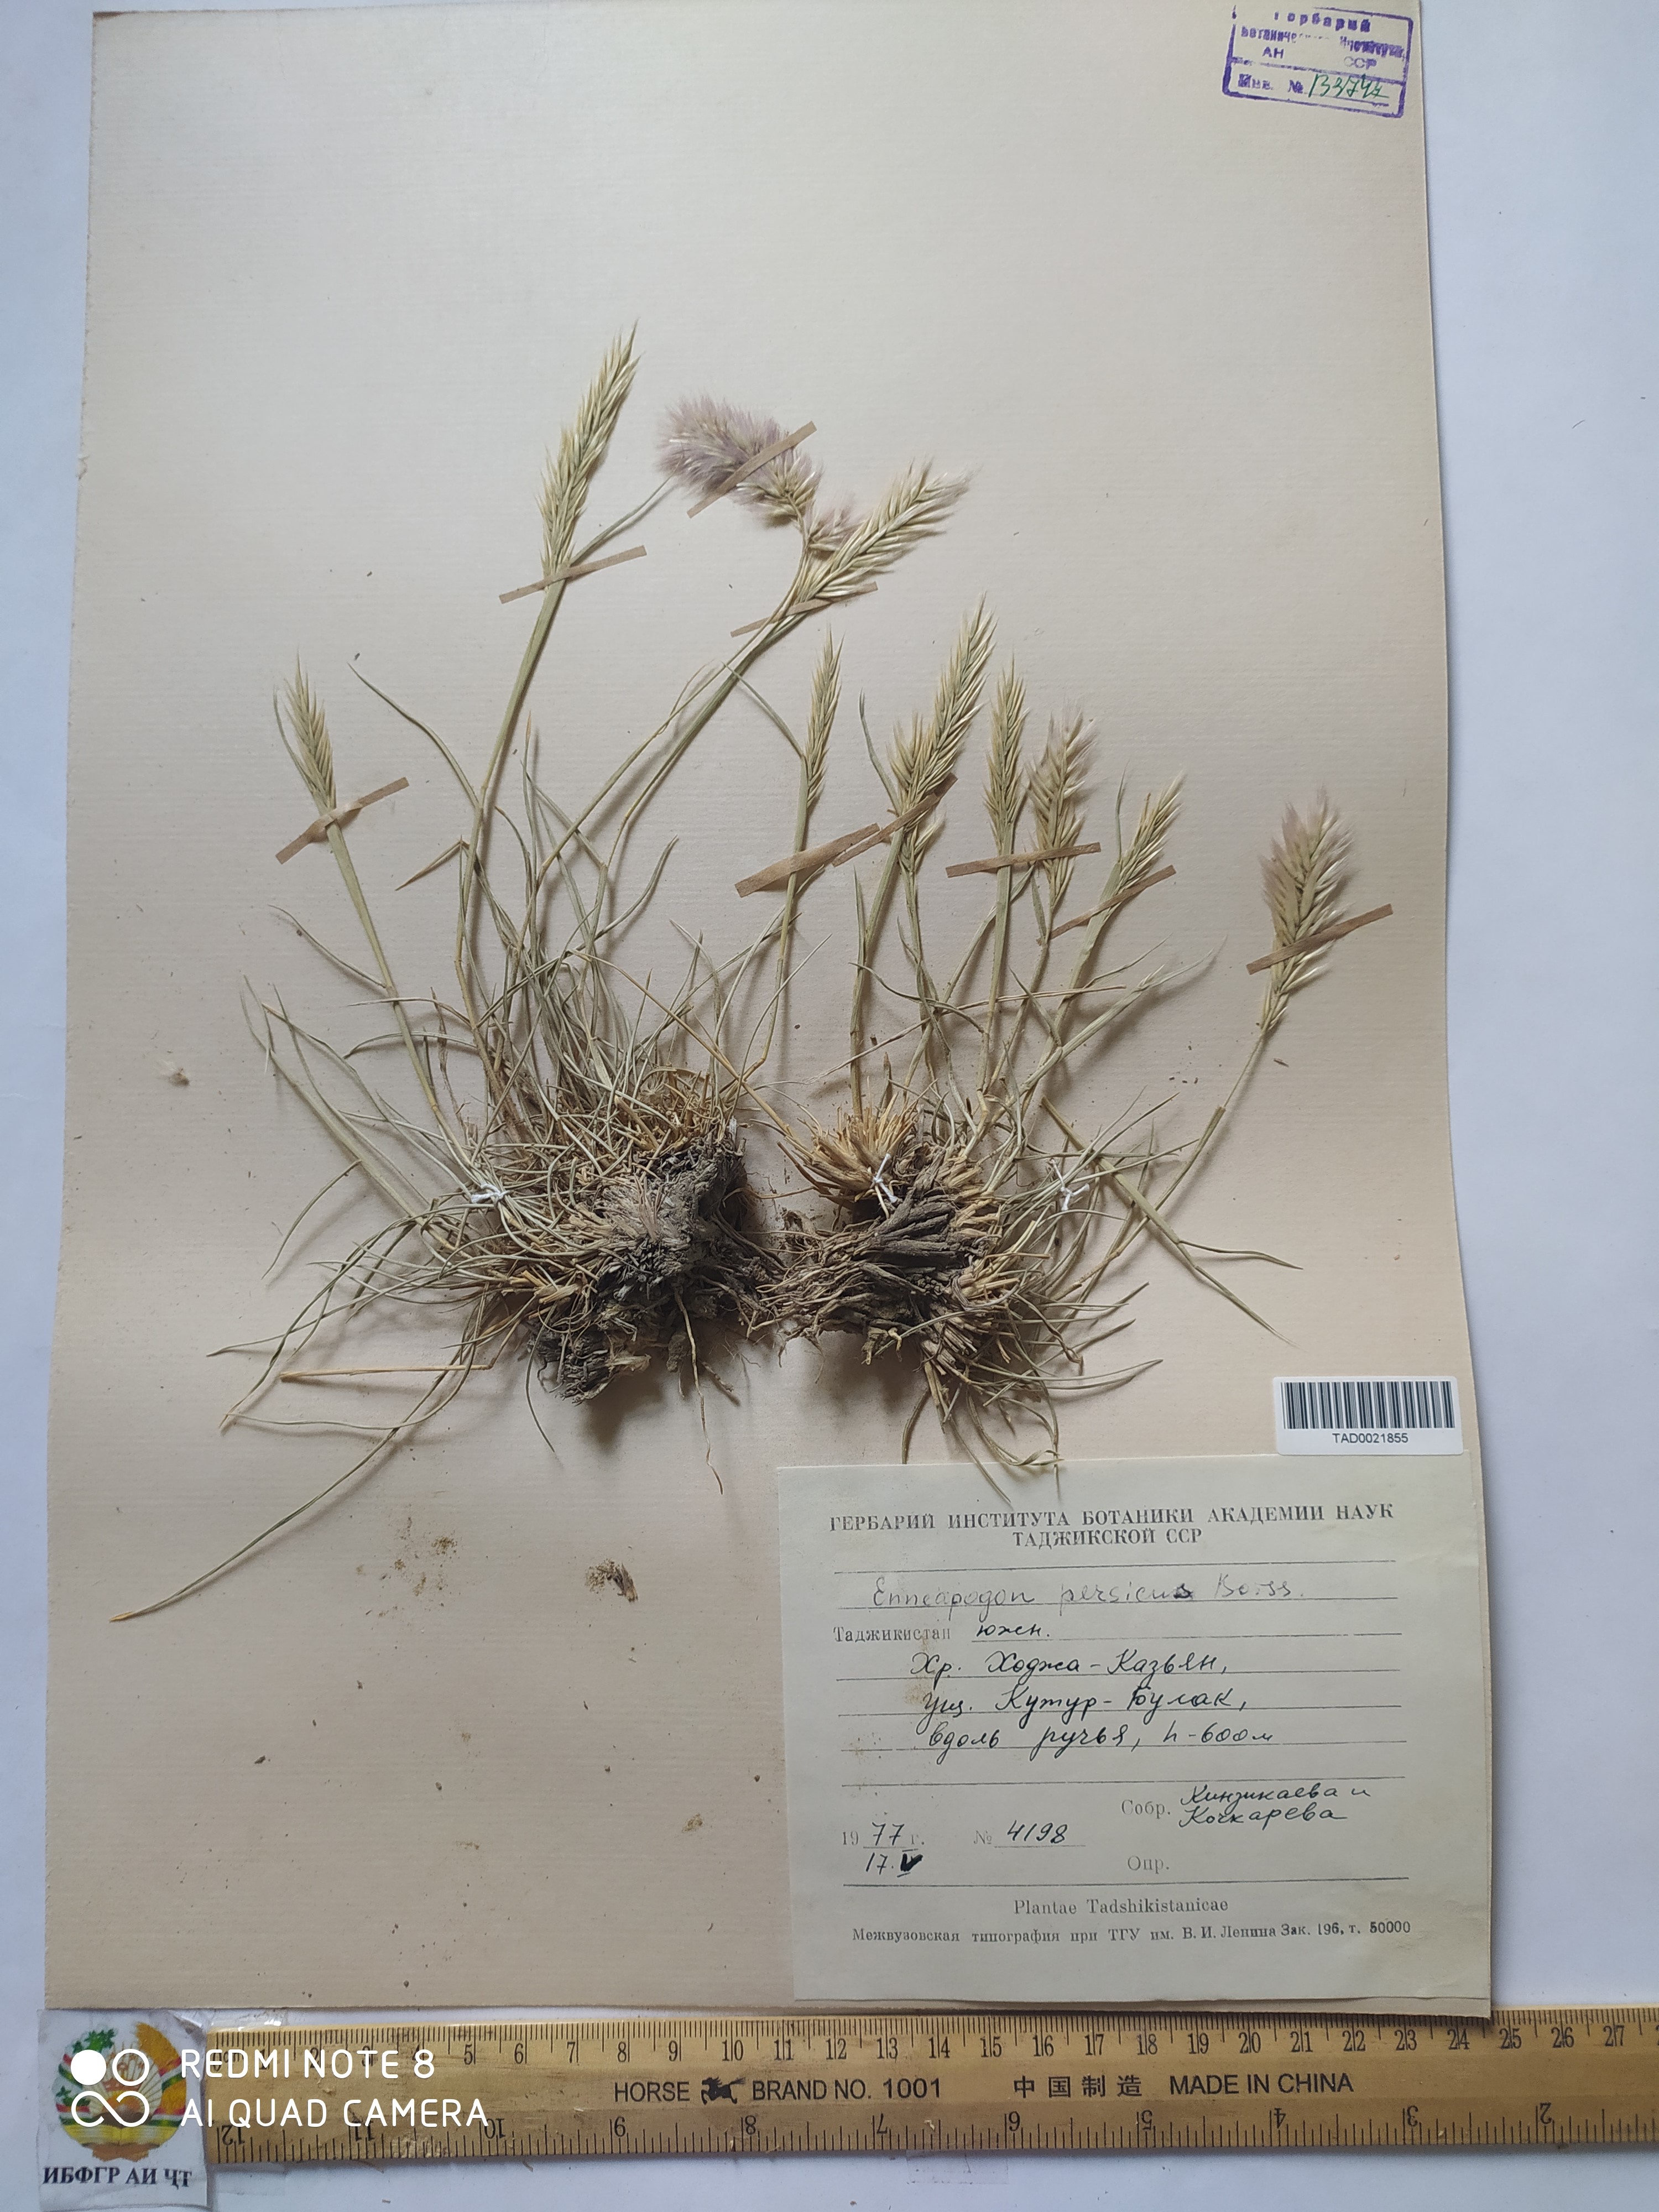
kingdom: Plantae
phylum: Tracheophyta
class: Liliopsida
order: Poales
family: Poaceae
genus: Enneapogon
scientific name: Enneapogon persicus
